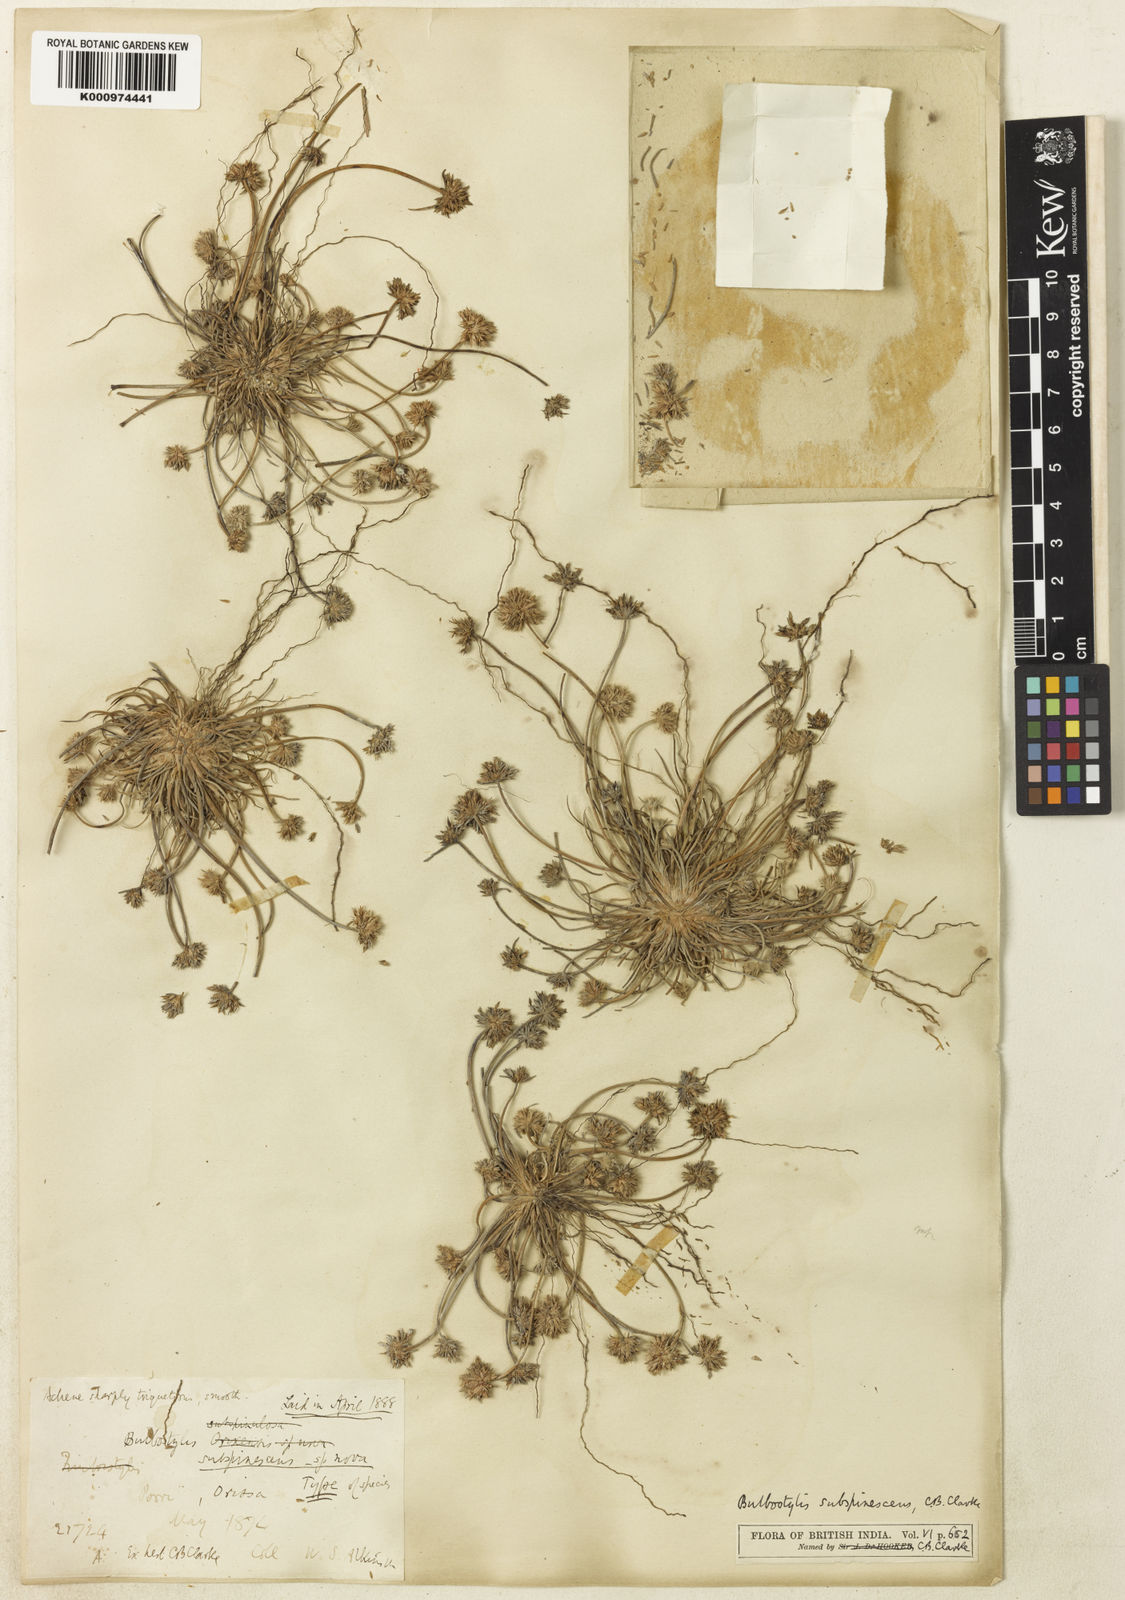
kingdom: Plantae
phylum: Tracheophyta
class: Liliopsida
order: Poales
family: Cyperaceae
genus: Bulbostylis
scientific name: Bulbostylis subspinescens
